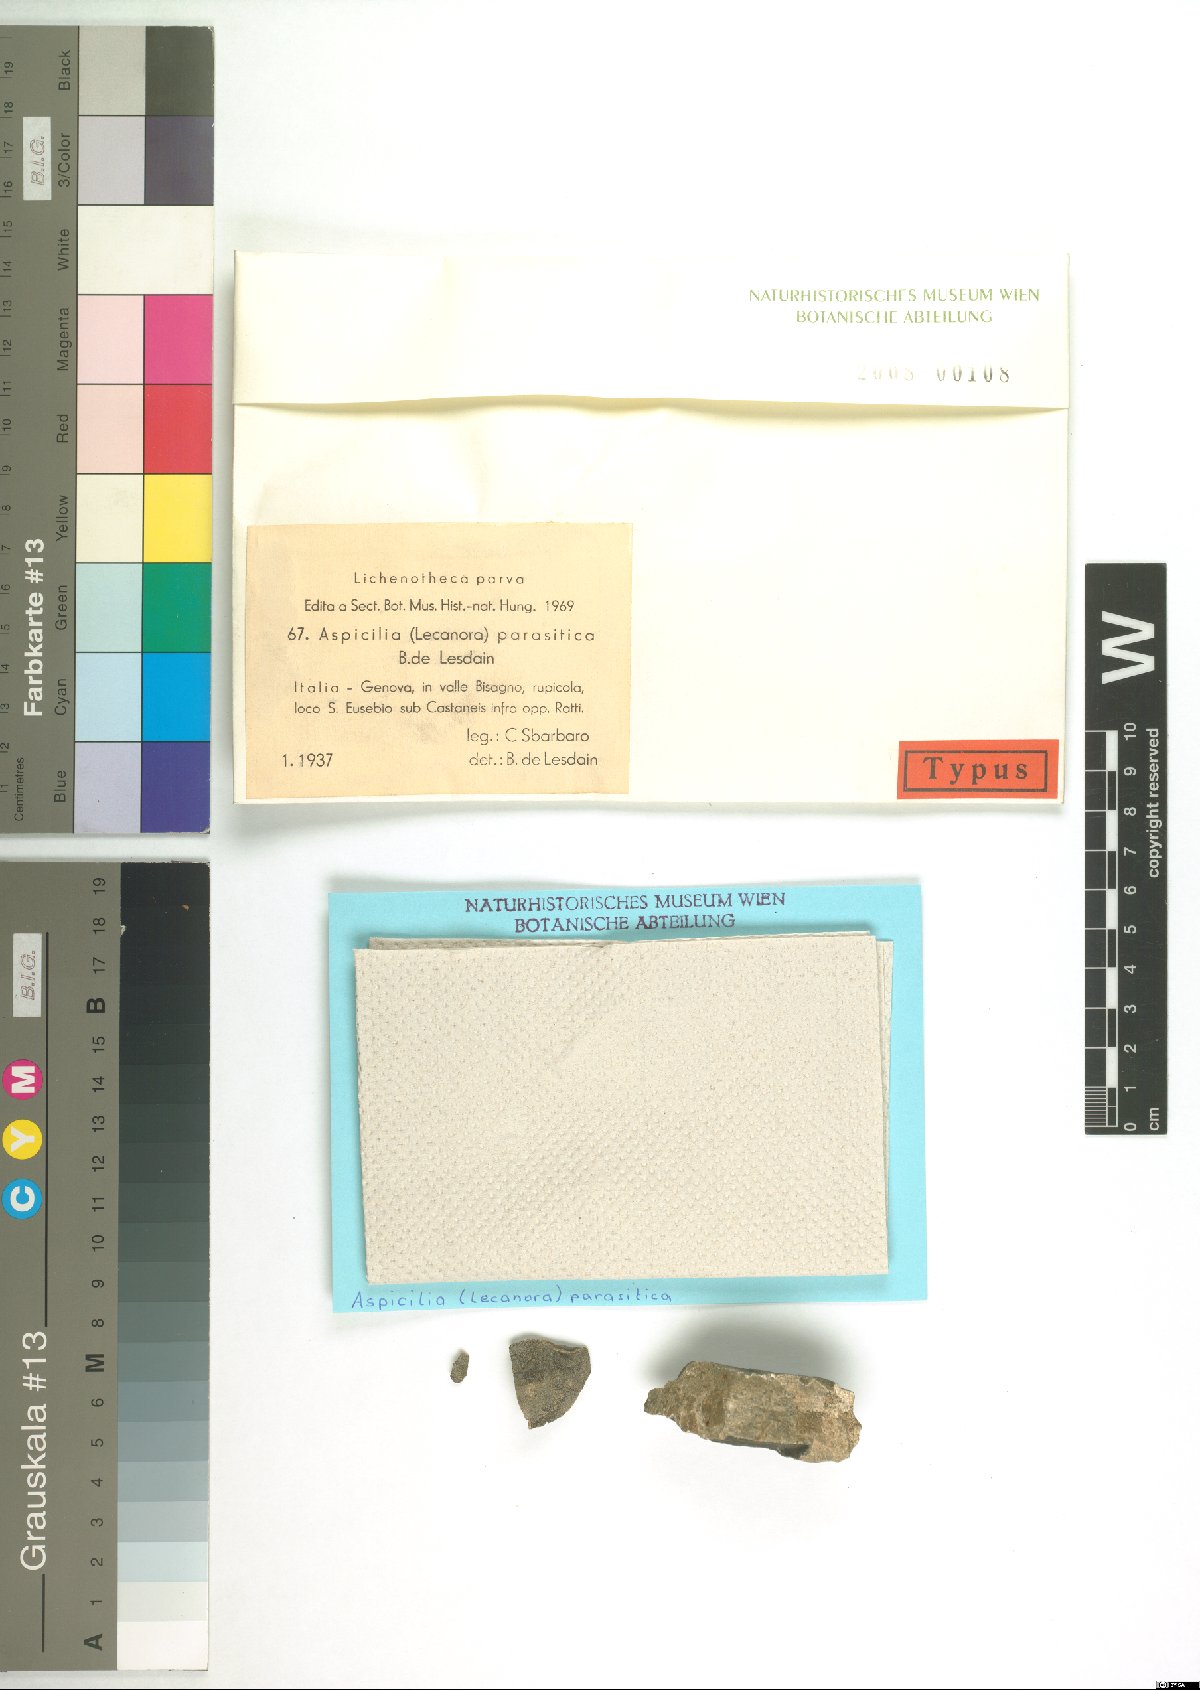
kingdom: Fungi
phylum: Ascomycota
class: Lecanoromycetes
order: Hymeneliales
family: Hymeneliaceae
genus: Aspicilia
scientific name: Aspicilia
